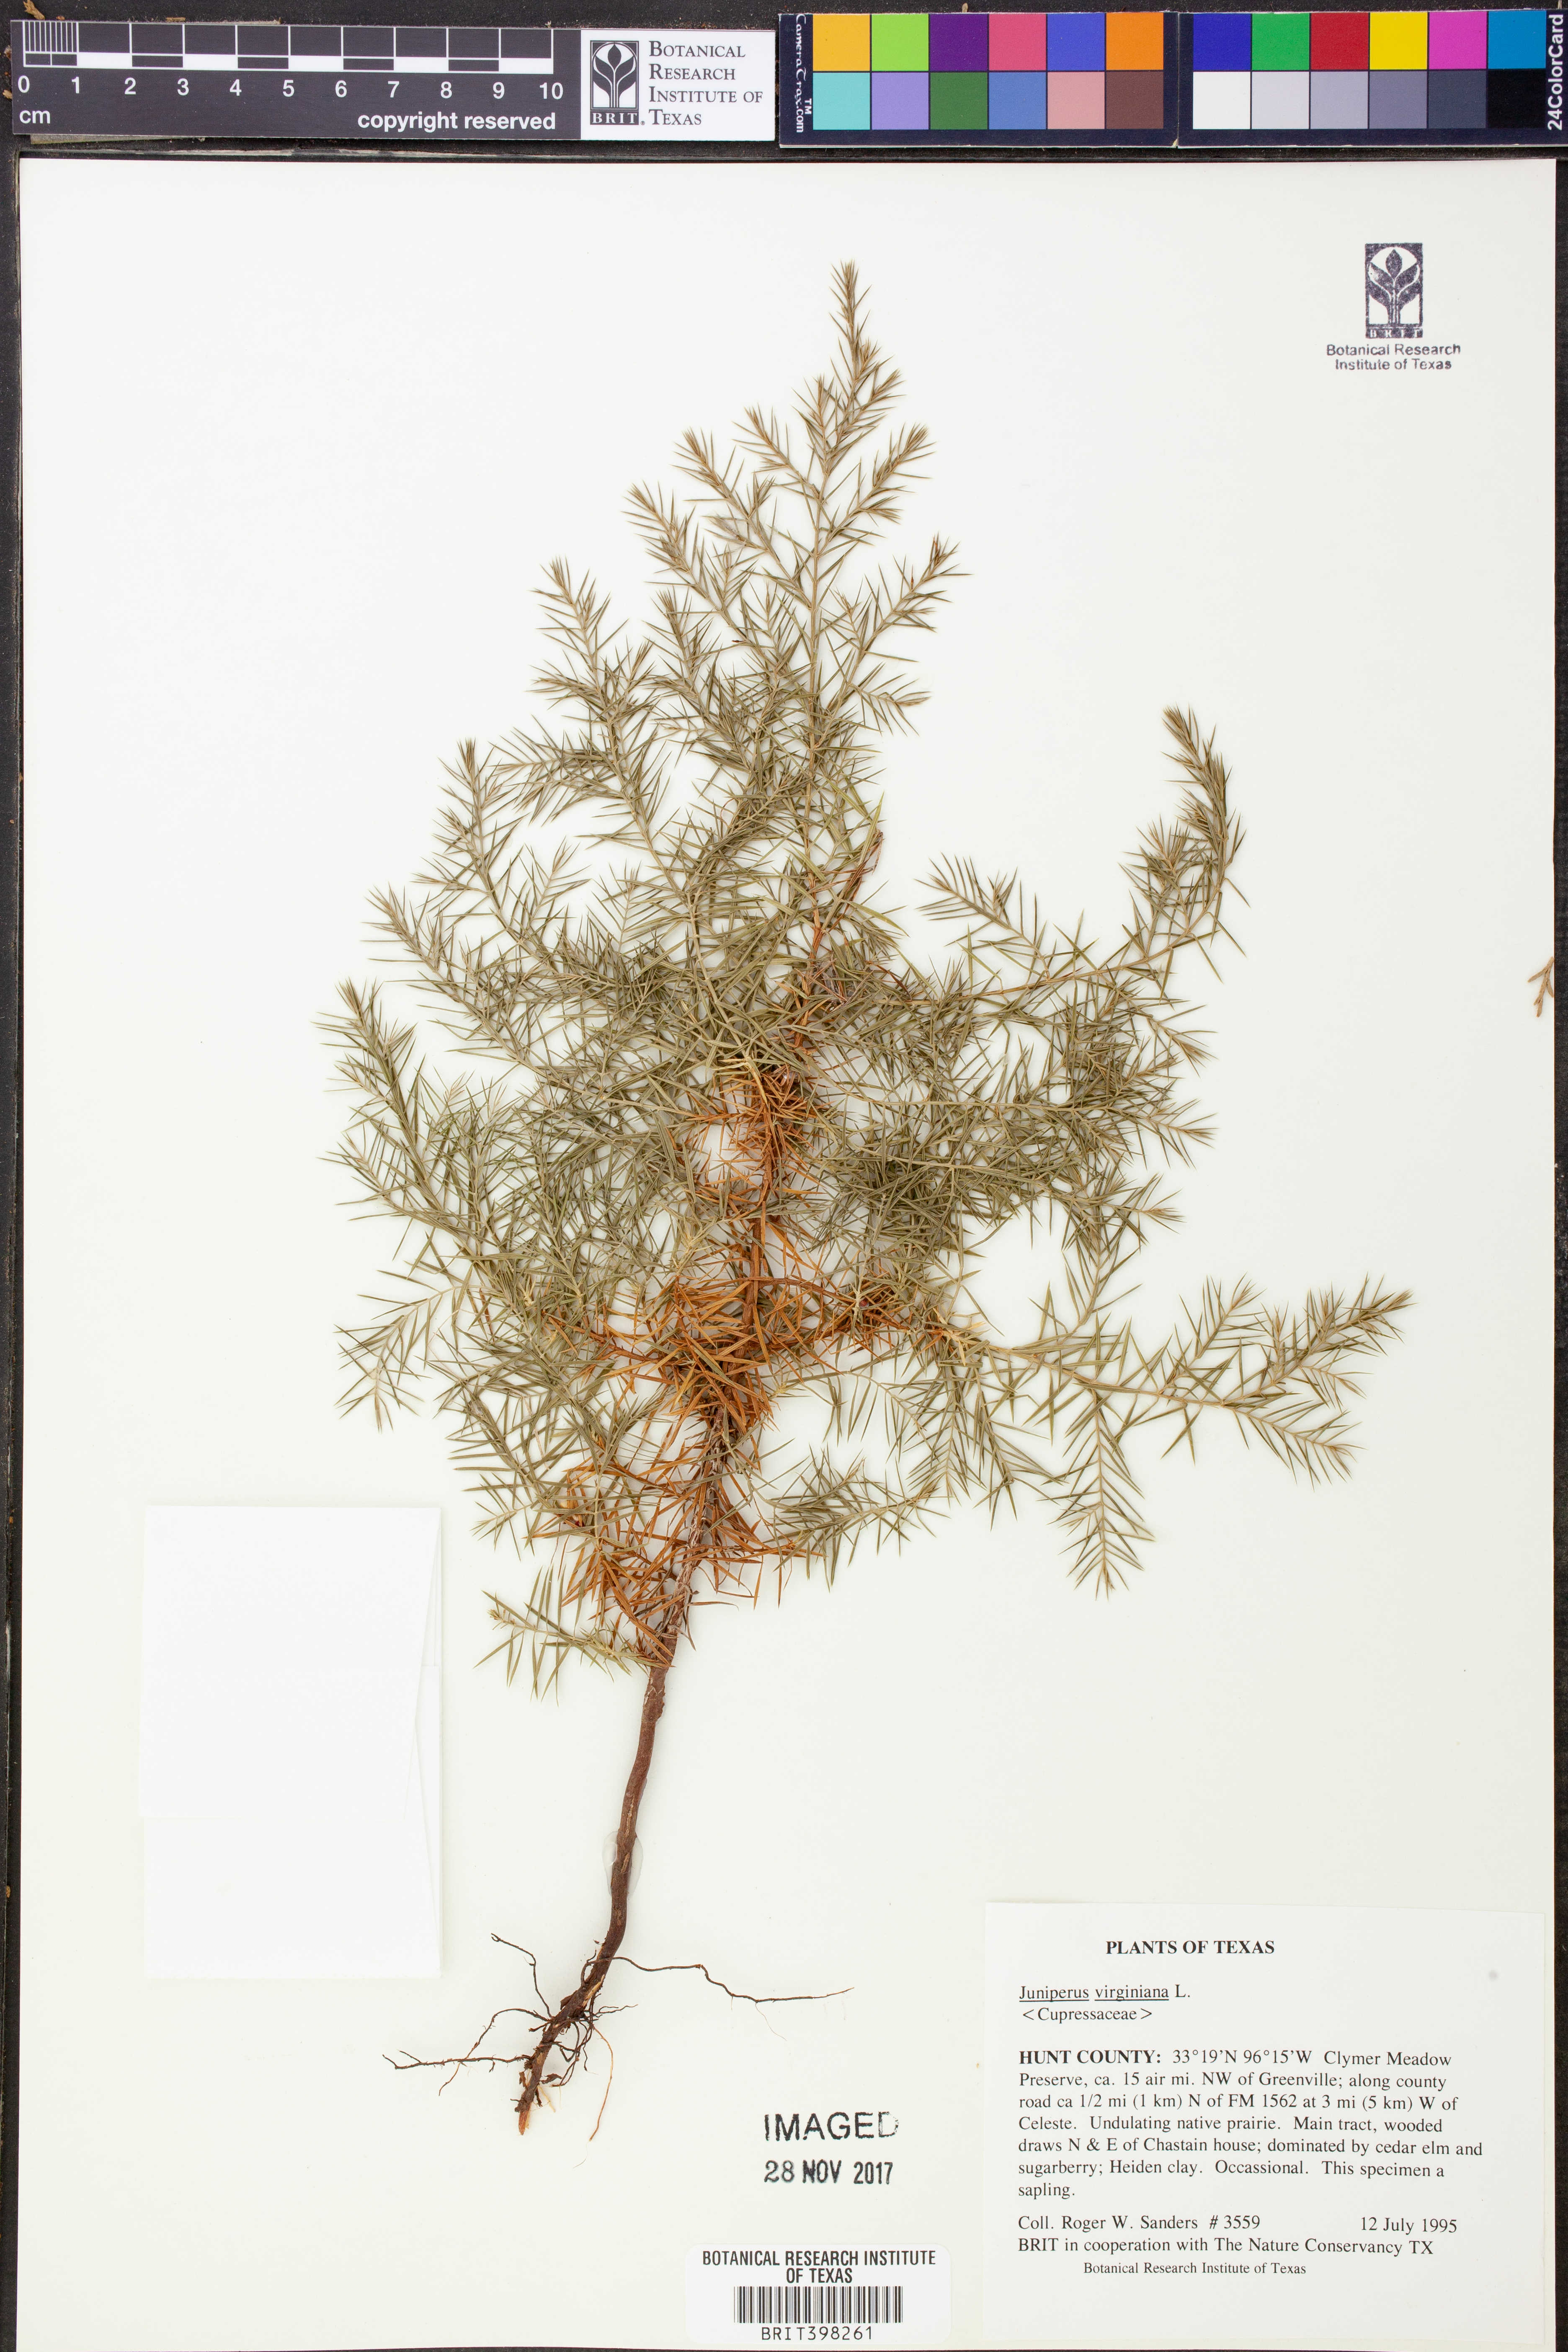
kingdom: Plantae
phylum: Tracheophyta
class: Pinopsida
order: Pinales
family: Cupressaceae
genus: Juniperus
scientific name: Juniperus virginiana
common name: Red juniper
